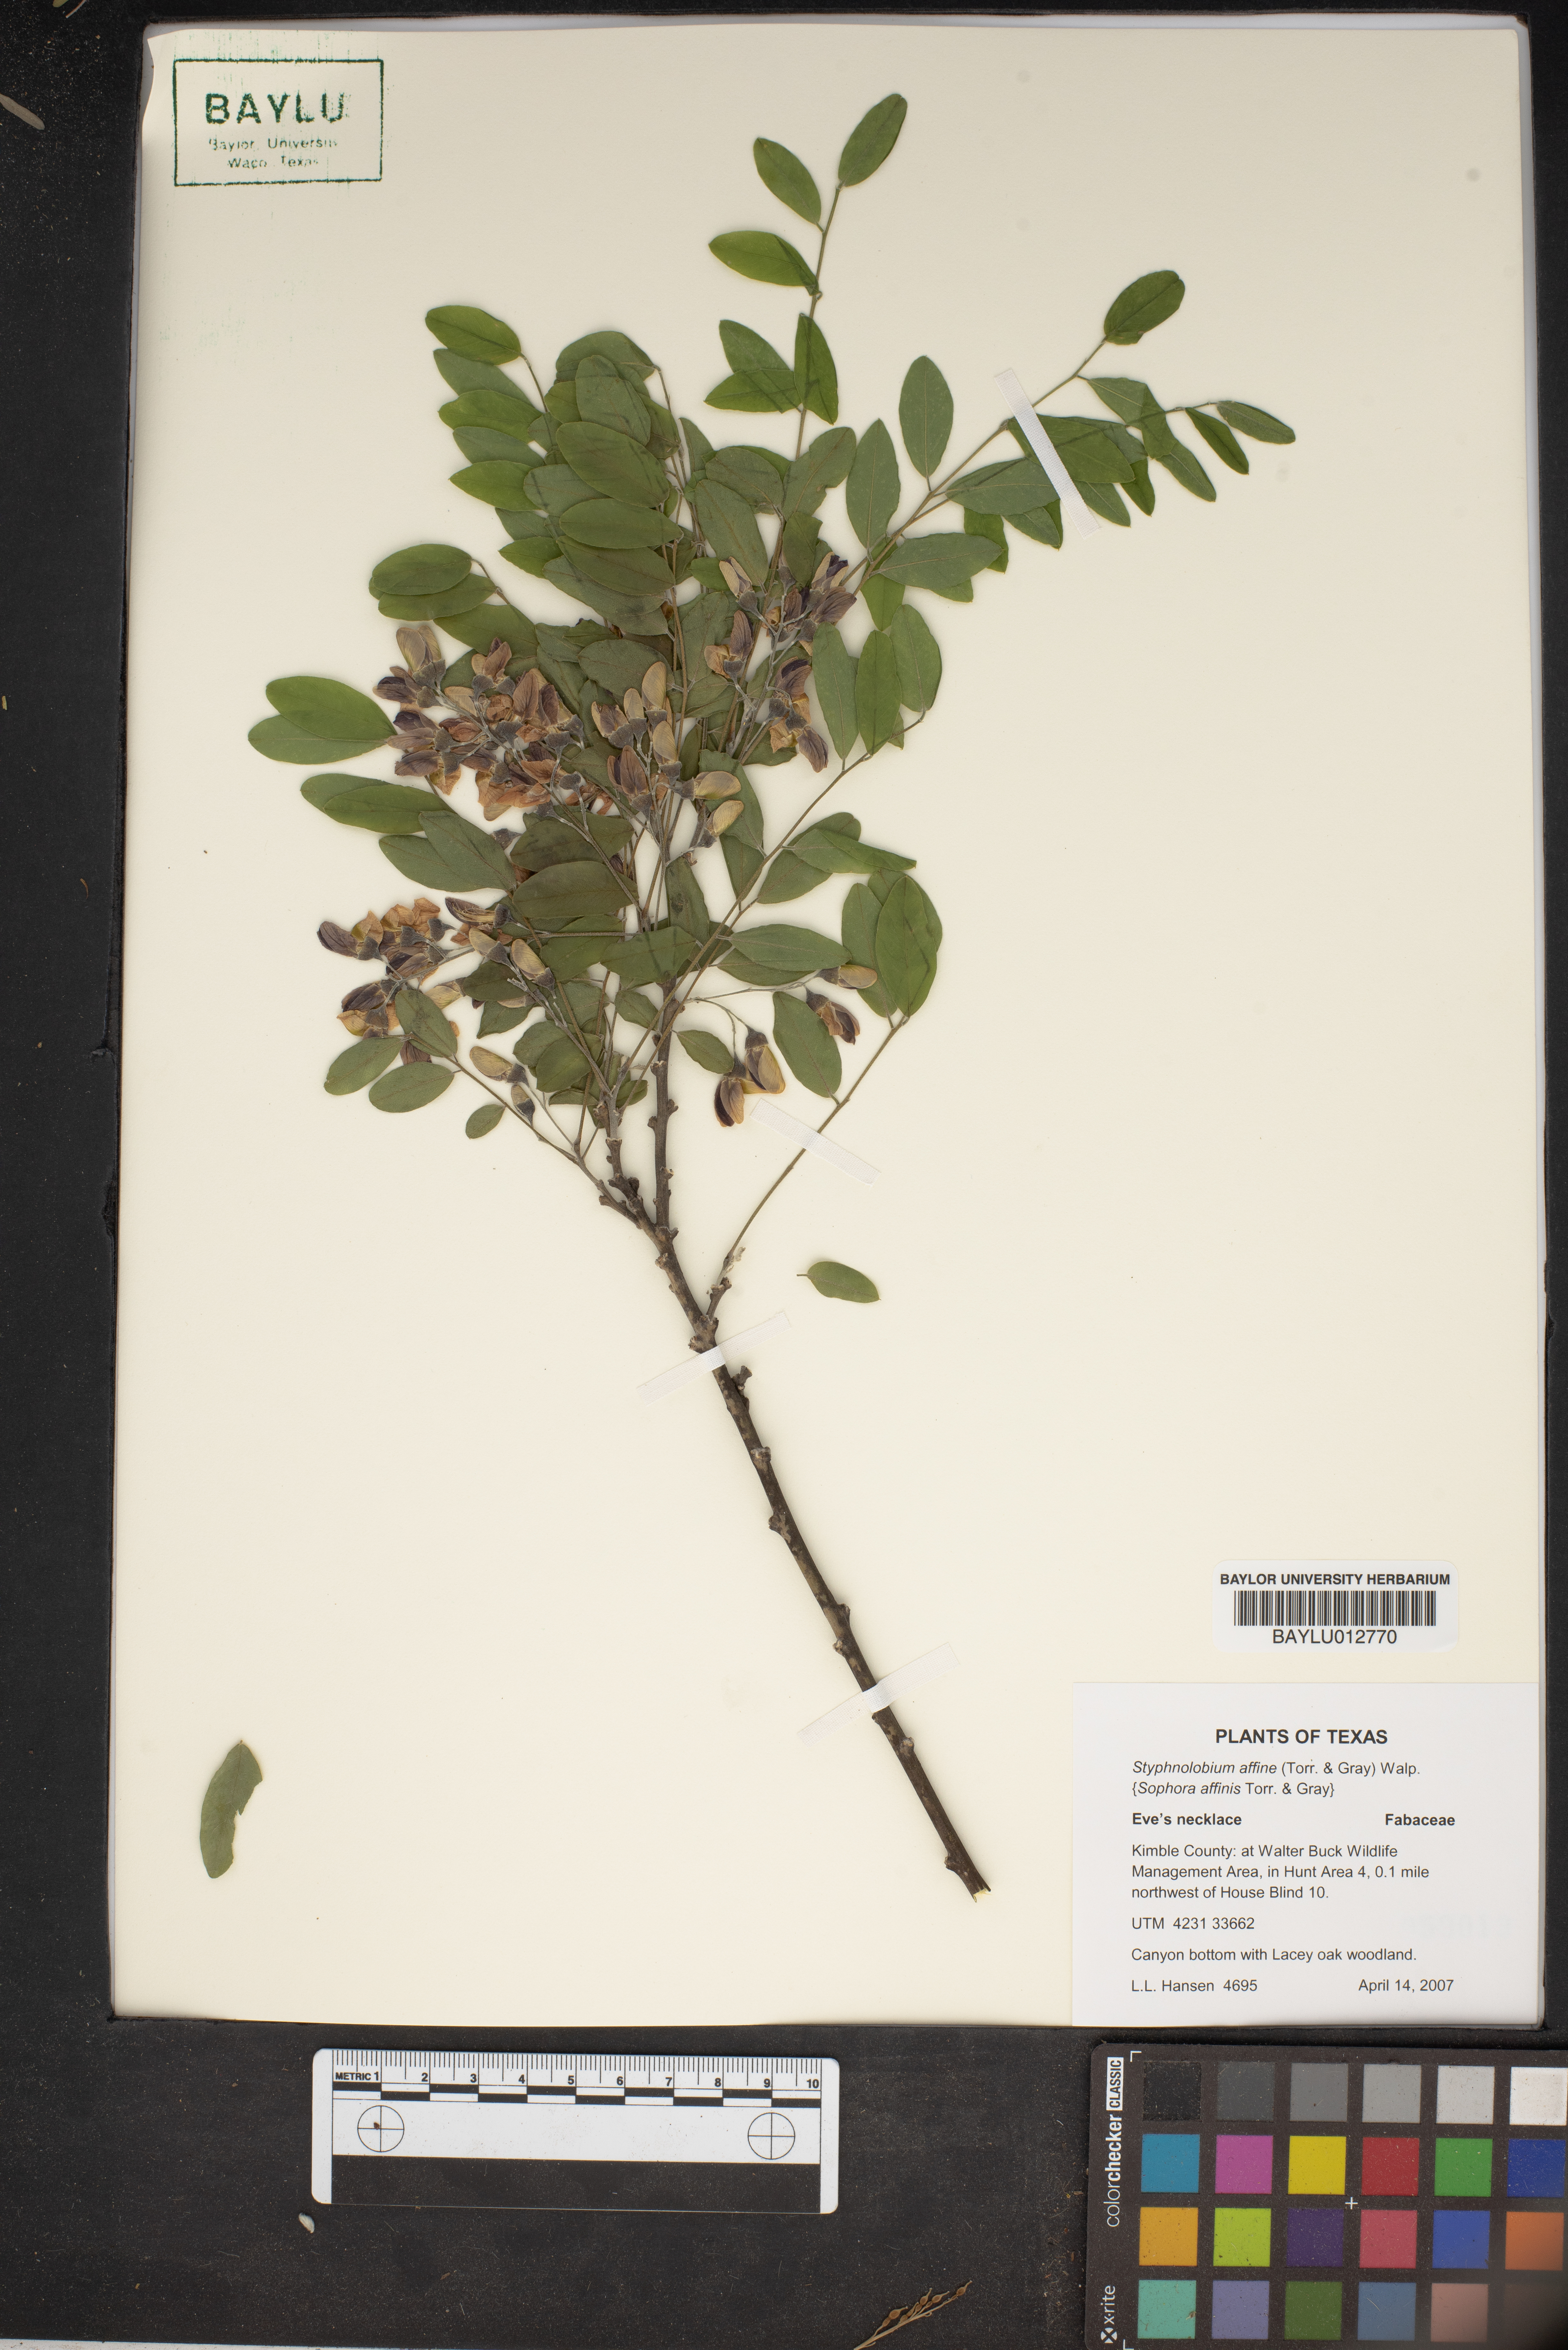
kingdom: Plantae
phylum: Tracheophyta
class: Magnoliopsida
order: Fabales
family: Fabaceae
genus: Styphnolobium
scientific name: Styphnolobium affine
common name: Texas sophora
